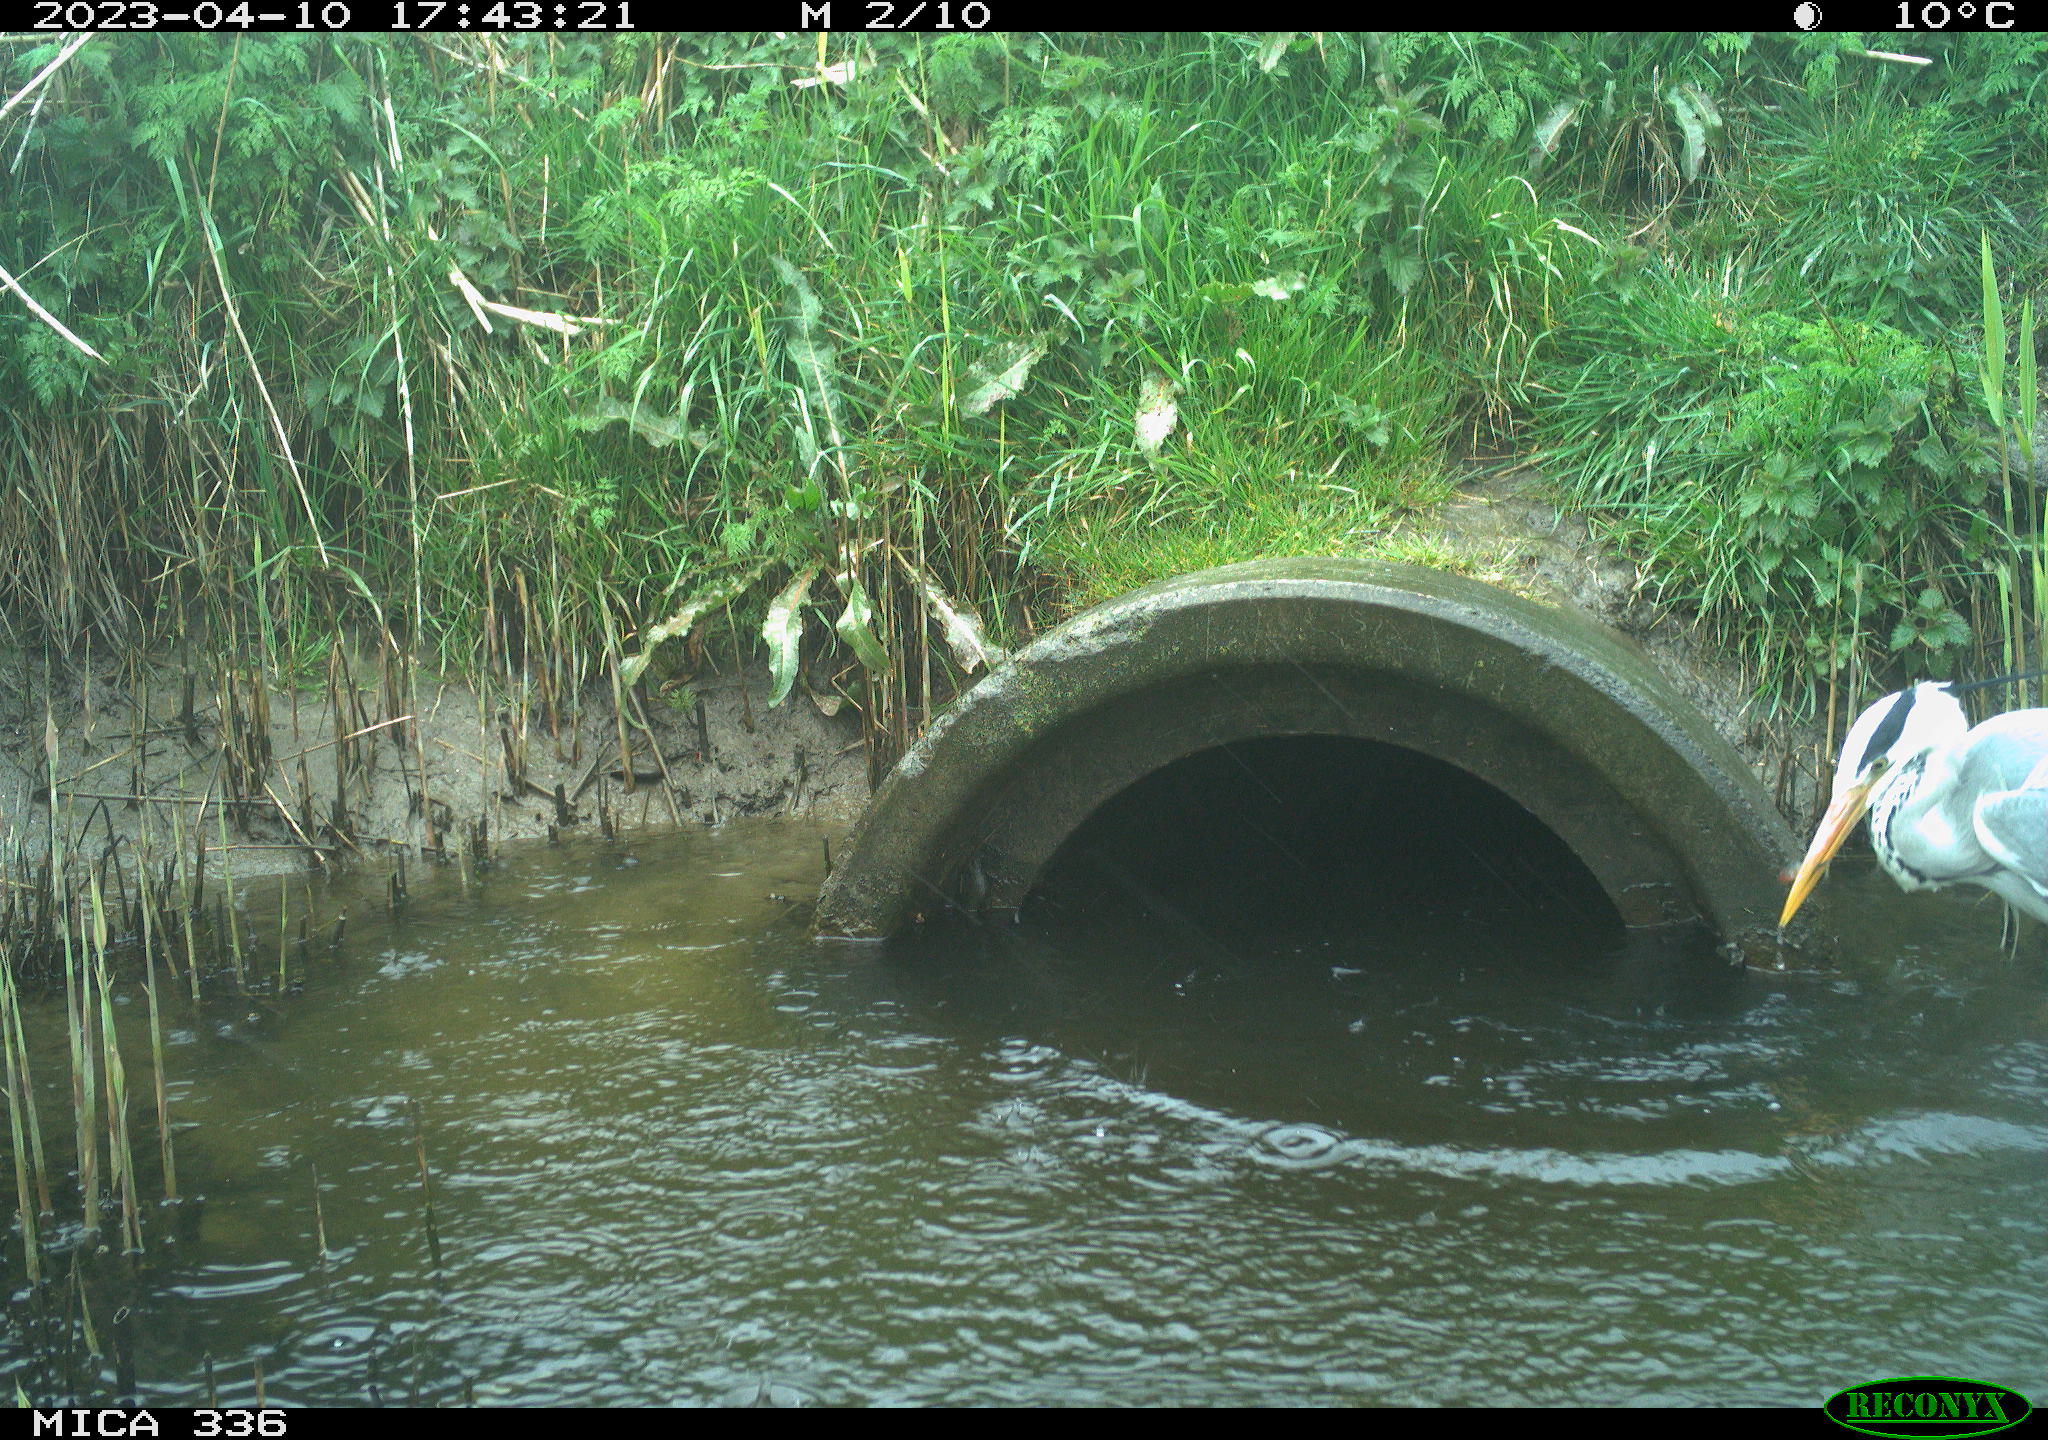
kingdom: Animalia
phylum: Chordata
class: Aves
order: Pelecaniformes
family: Ardeidae
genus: Ardea
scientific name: Ardea
